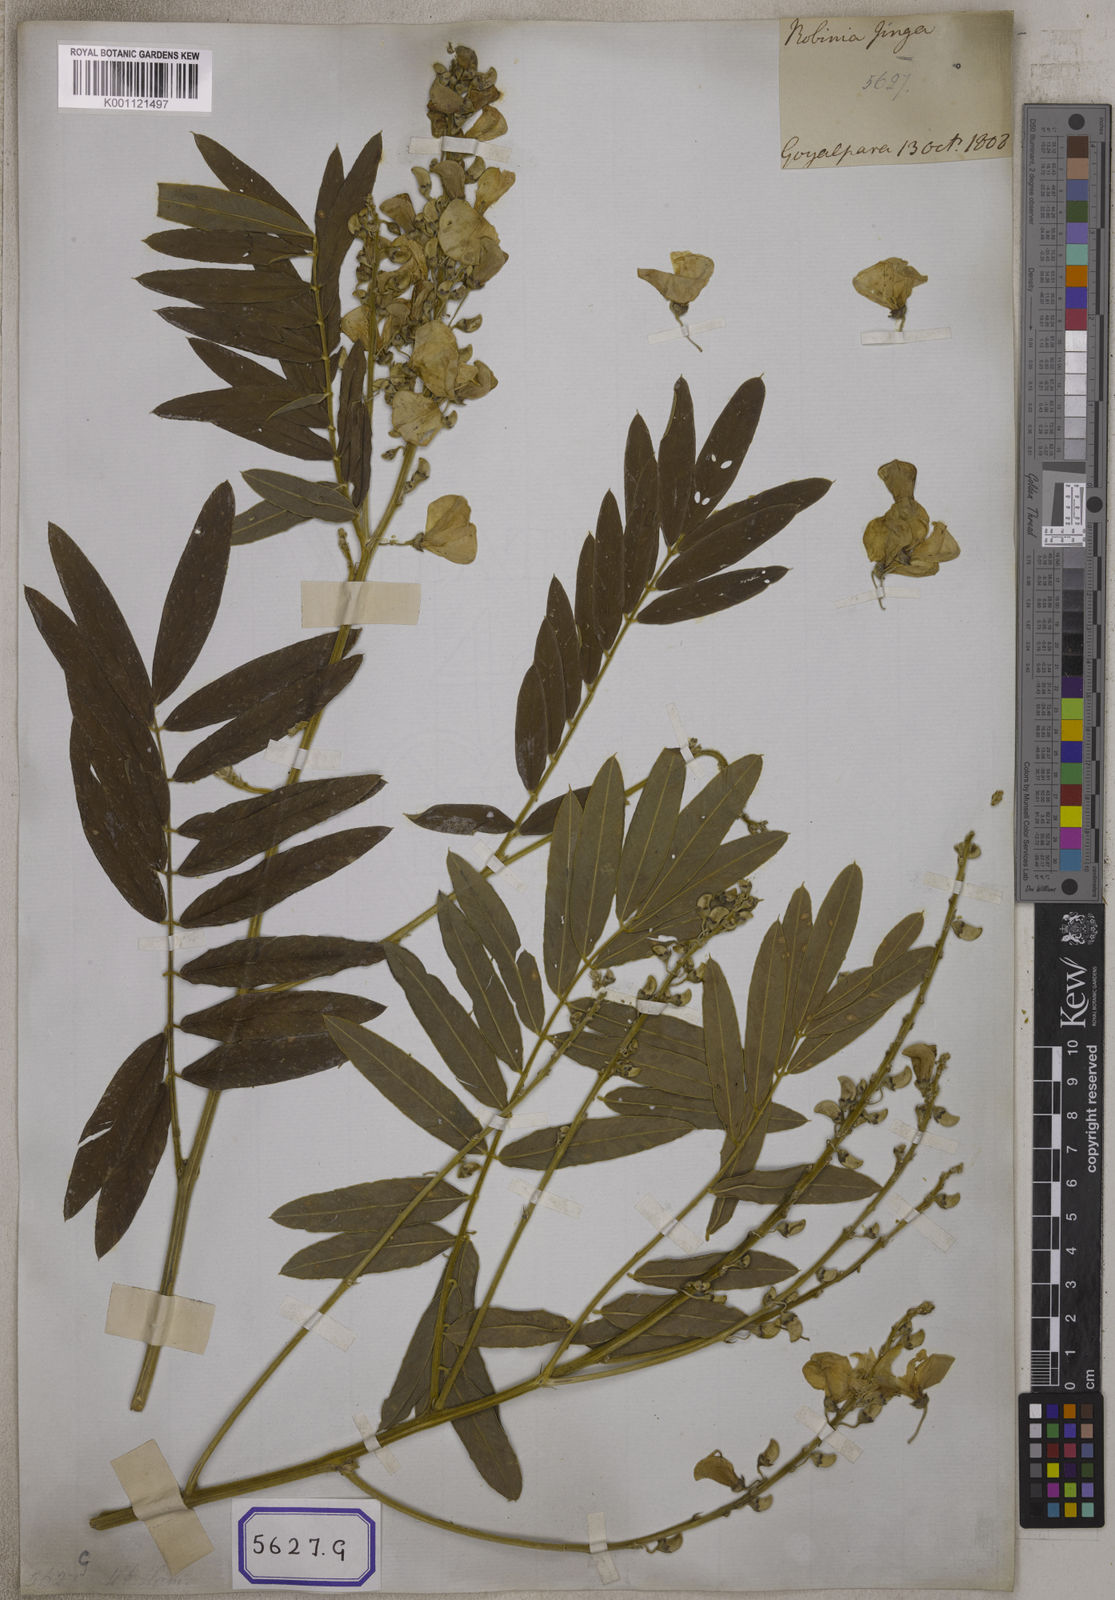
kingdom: Plantae
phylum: Tracheophyta
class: Magnoliopsida
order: Fabales
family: Fabaceae
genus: Tephrosia
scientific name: Tephrosia candida
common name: White tephrosia
